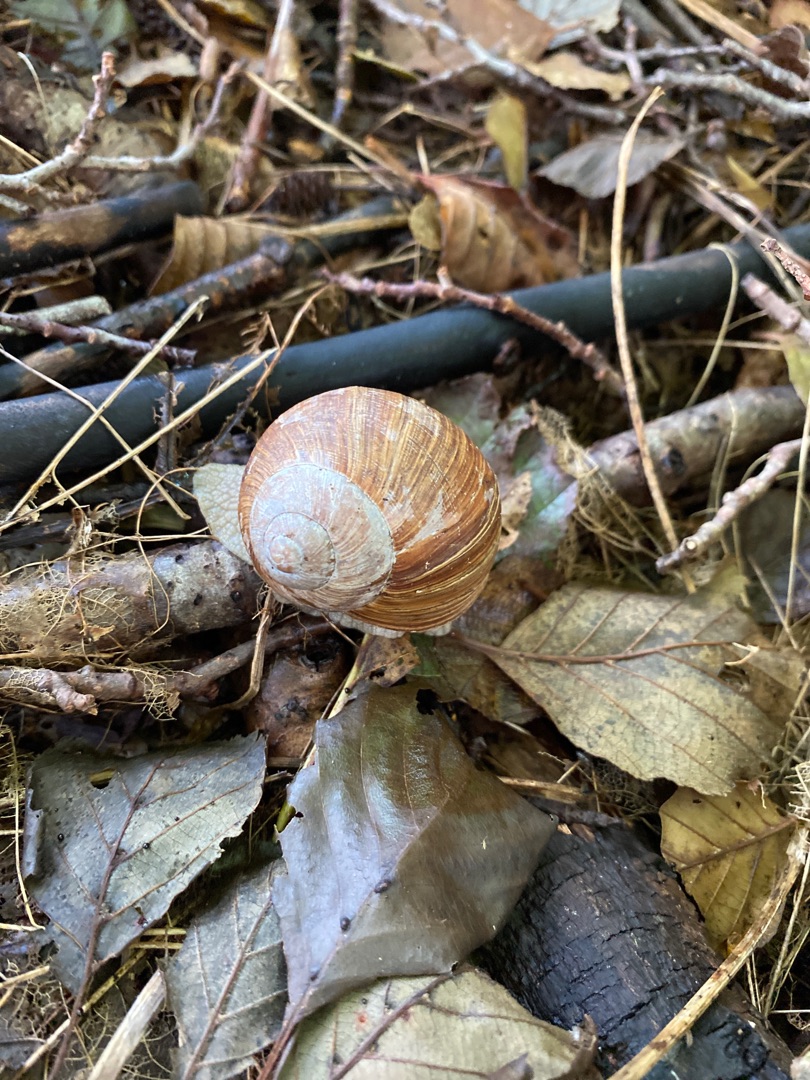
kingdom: Animalia
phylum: Mollusca
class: Gastropoda
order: Stylommatophora
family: Helicidae
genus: Helix
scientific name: Helix pomatia
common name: Vinbjergsnegl
